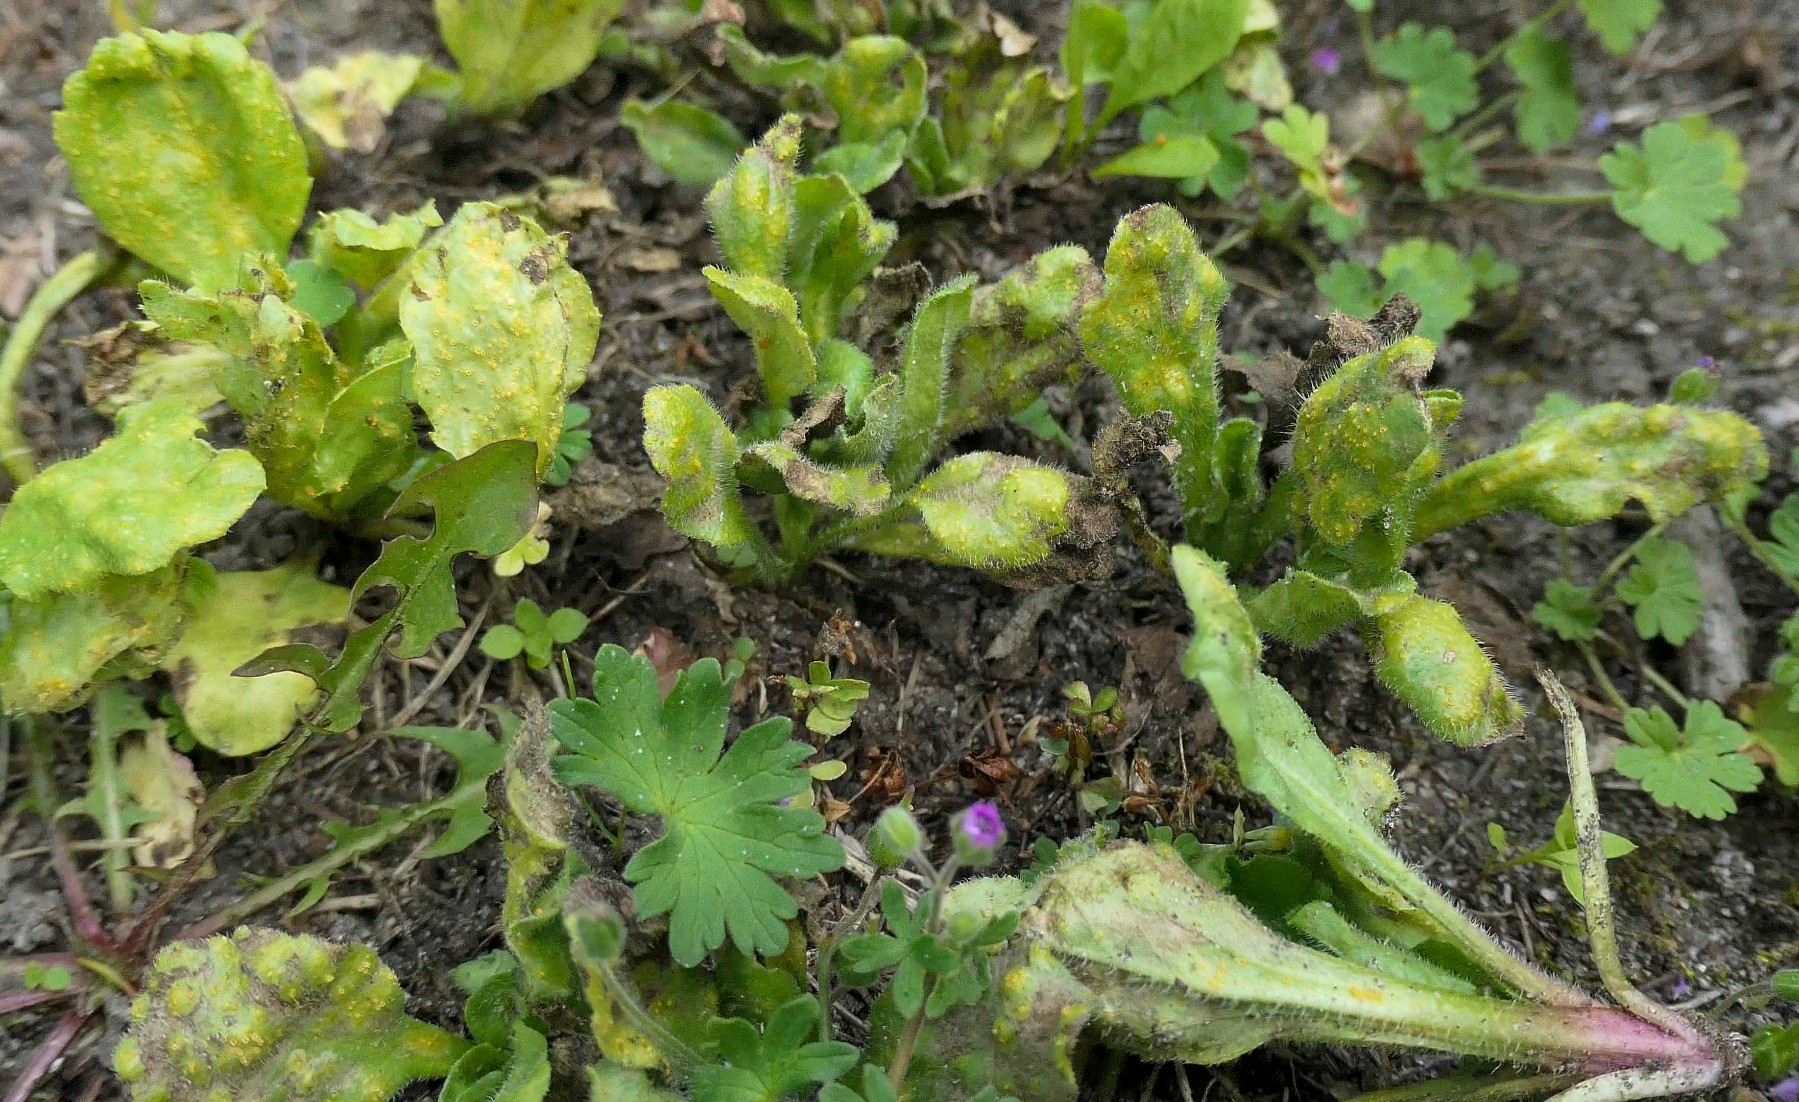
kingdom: Fungi
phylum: Basidiomycota
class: Pucciniomycetes
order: Pucciniales
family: Pucciniaceae
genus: Puccinia
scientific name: Puccinia distincta
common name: Daisy rust
